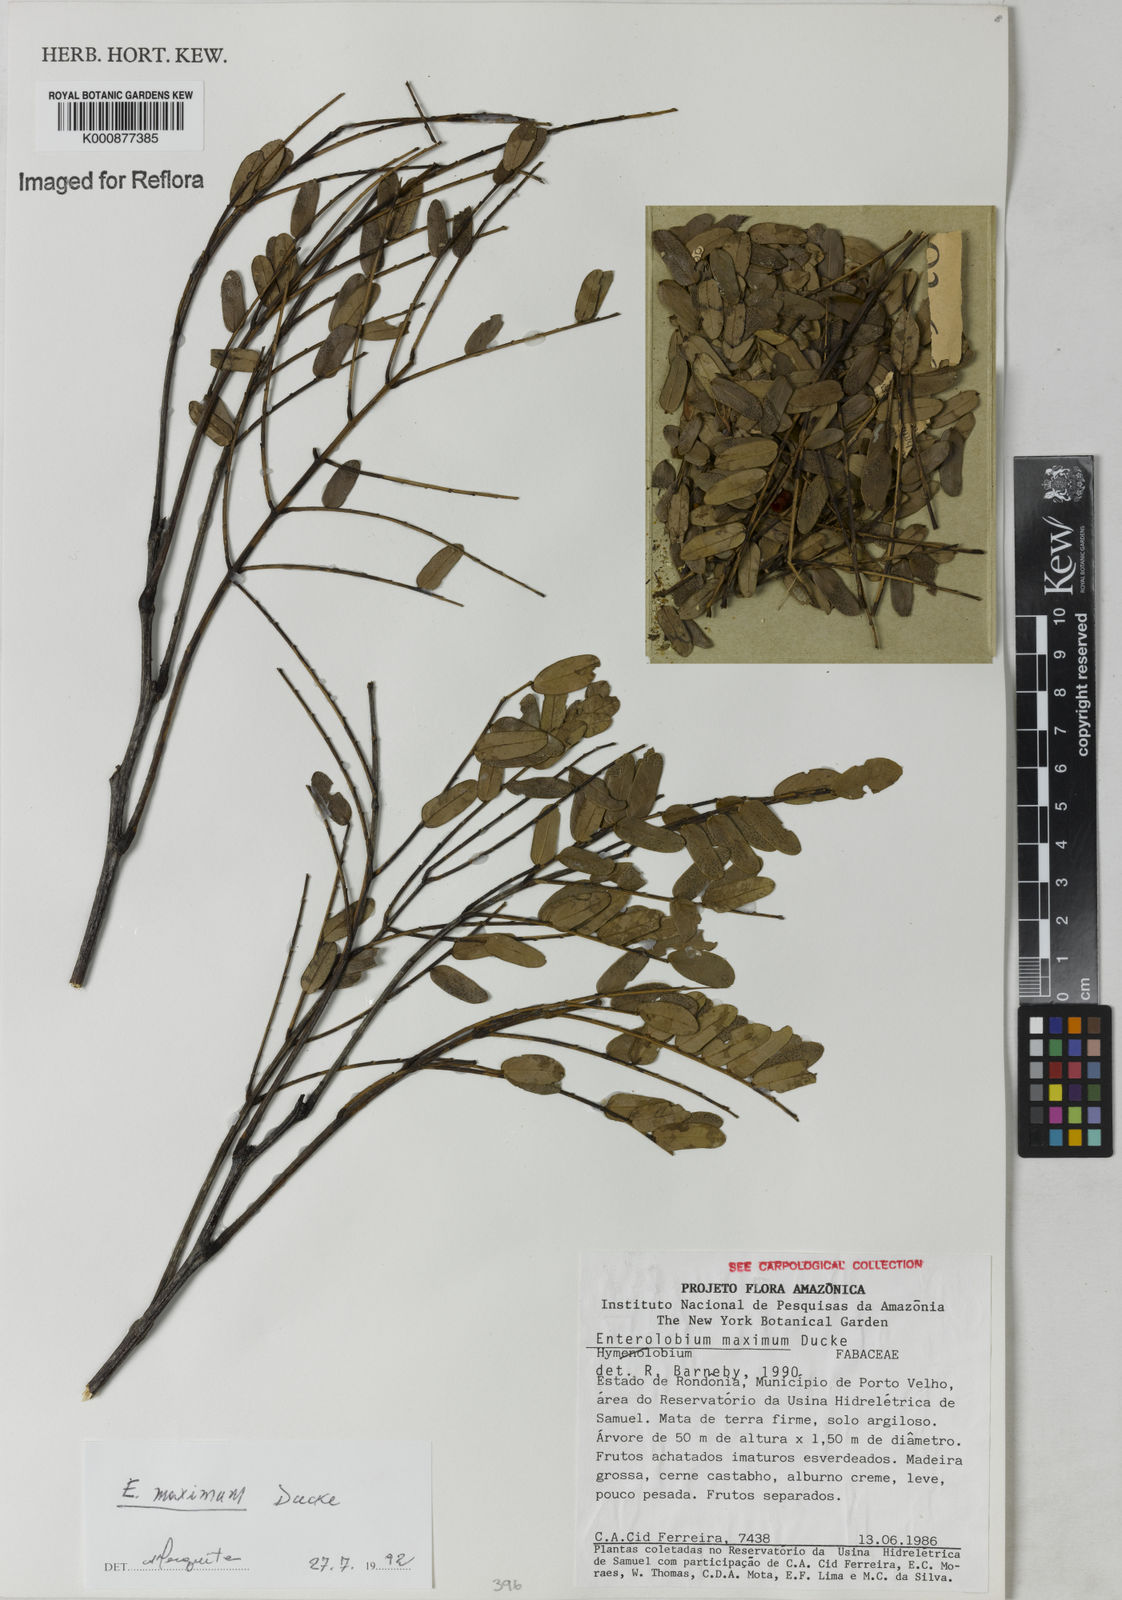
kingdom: Plantae
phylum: Tracheophyta
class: Magnoliopsida
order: Fabales
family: Fabaceae
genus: Enterolobium
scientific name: Enterolobium maximum
